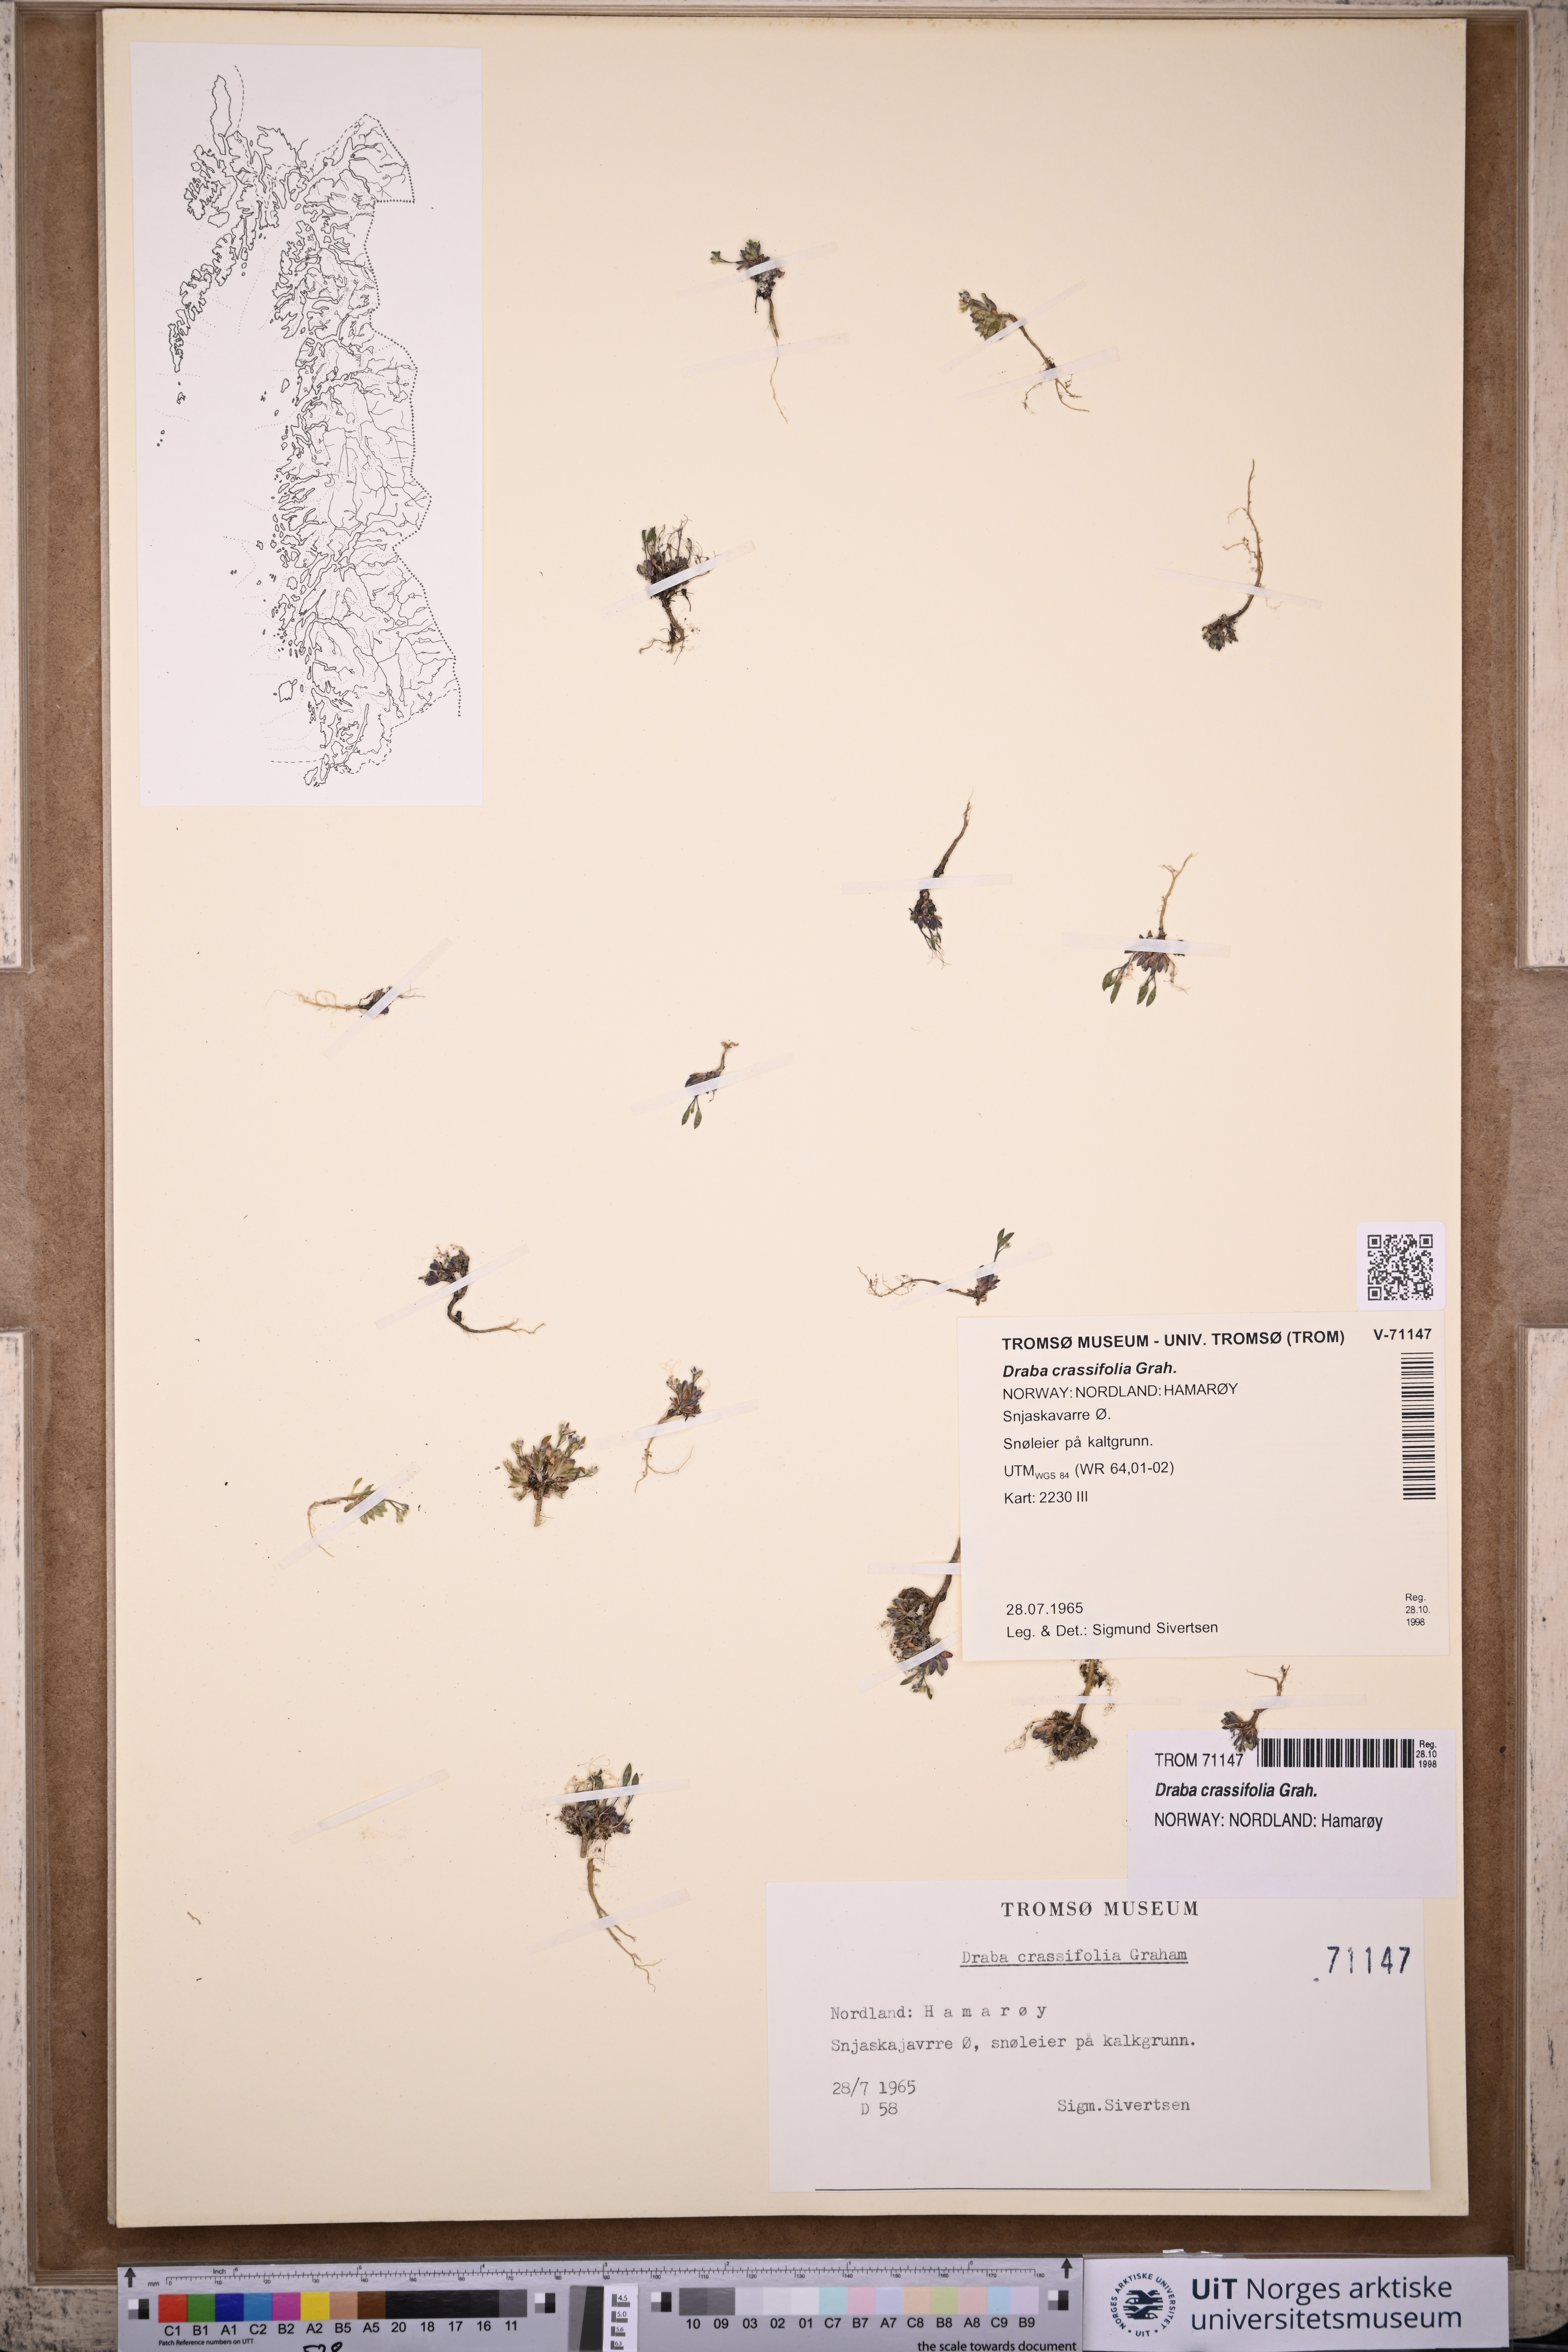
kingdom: Plantae
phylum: Tracheophyta
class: Magnoliopsida
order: Brassicales
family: Brassicaceae
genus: Draba
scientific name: Draba crassifolia
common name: Rocky mountain draba
